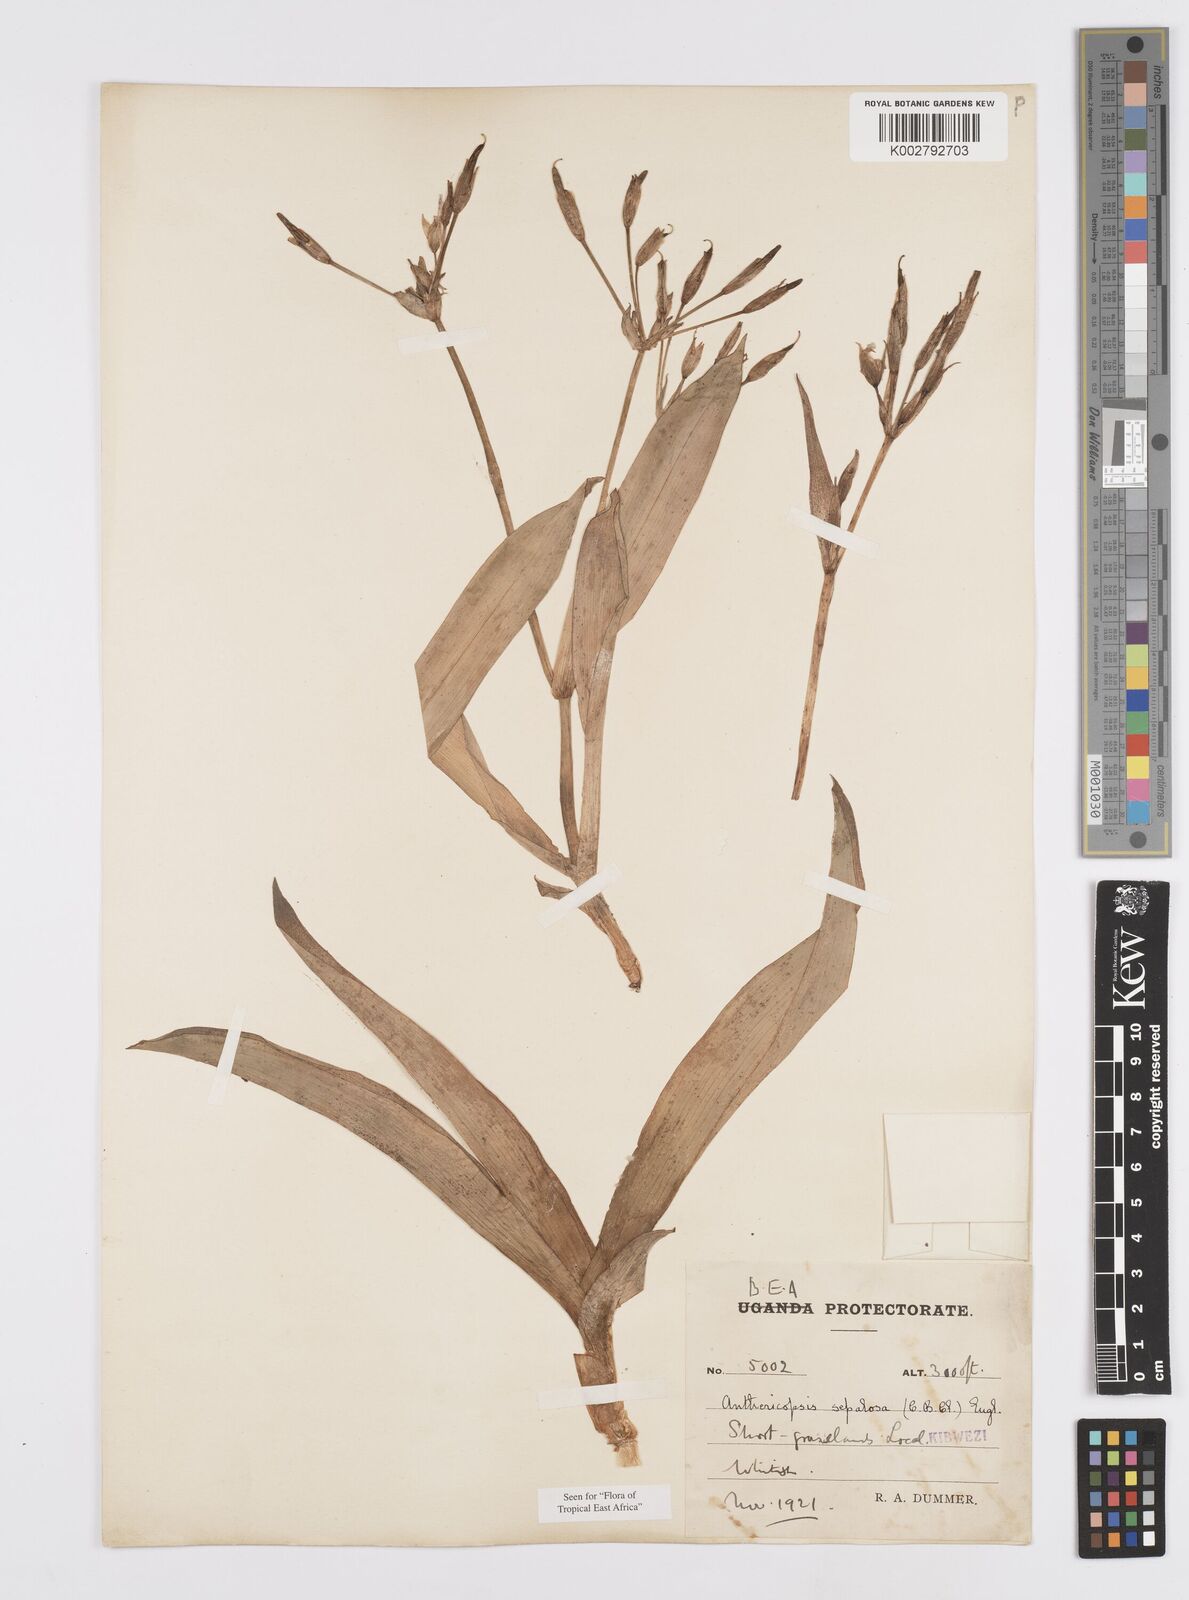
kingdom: Plantae
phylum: Tracheophyta
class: Liliopsida
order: Commelinales
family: Commelinaceae
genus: Anthericopsis
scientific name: Anthericopsis sepalosa
